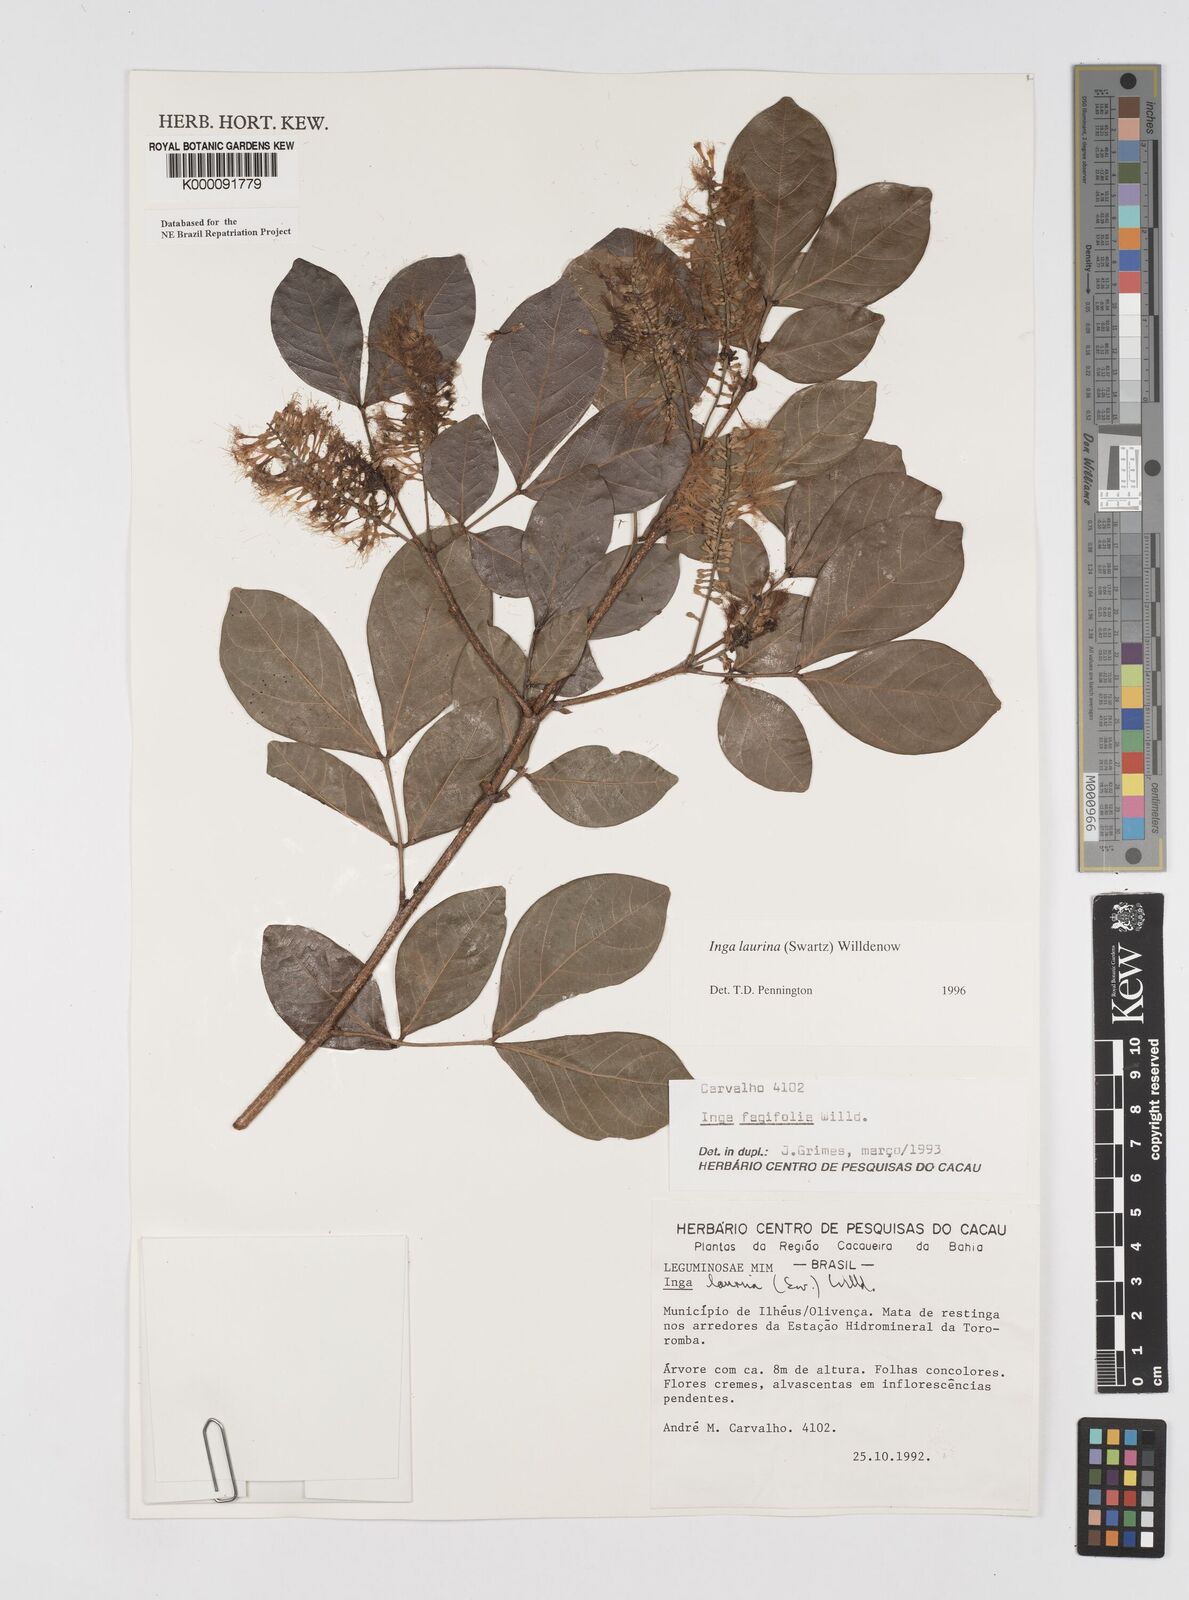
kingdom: Plantae
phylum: Tracheophyta
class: Magnoliopsida
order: Fabales
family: Fabaceae
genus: Inga
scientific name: Inga laurina
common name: Red wood
